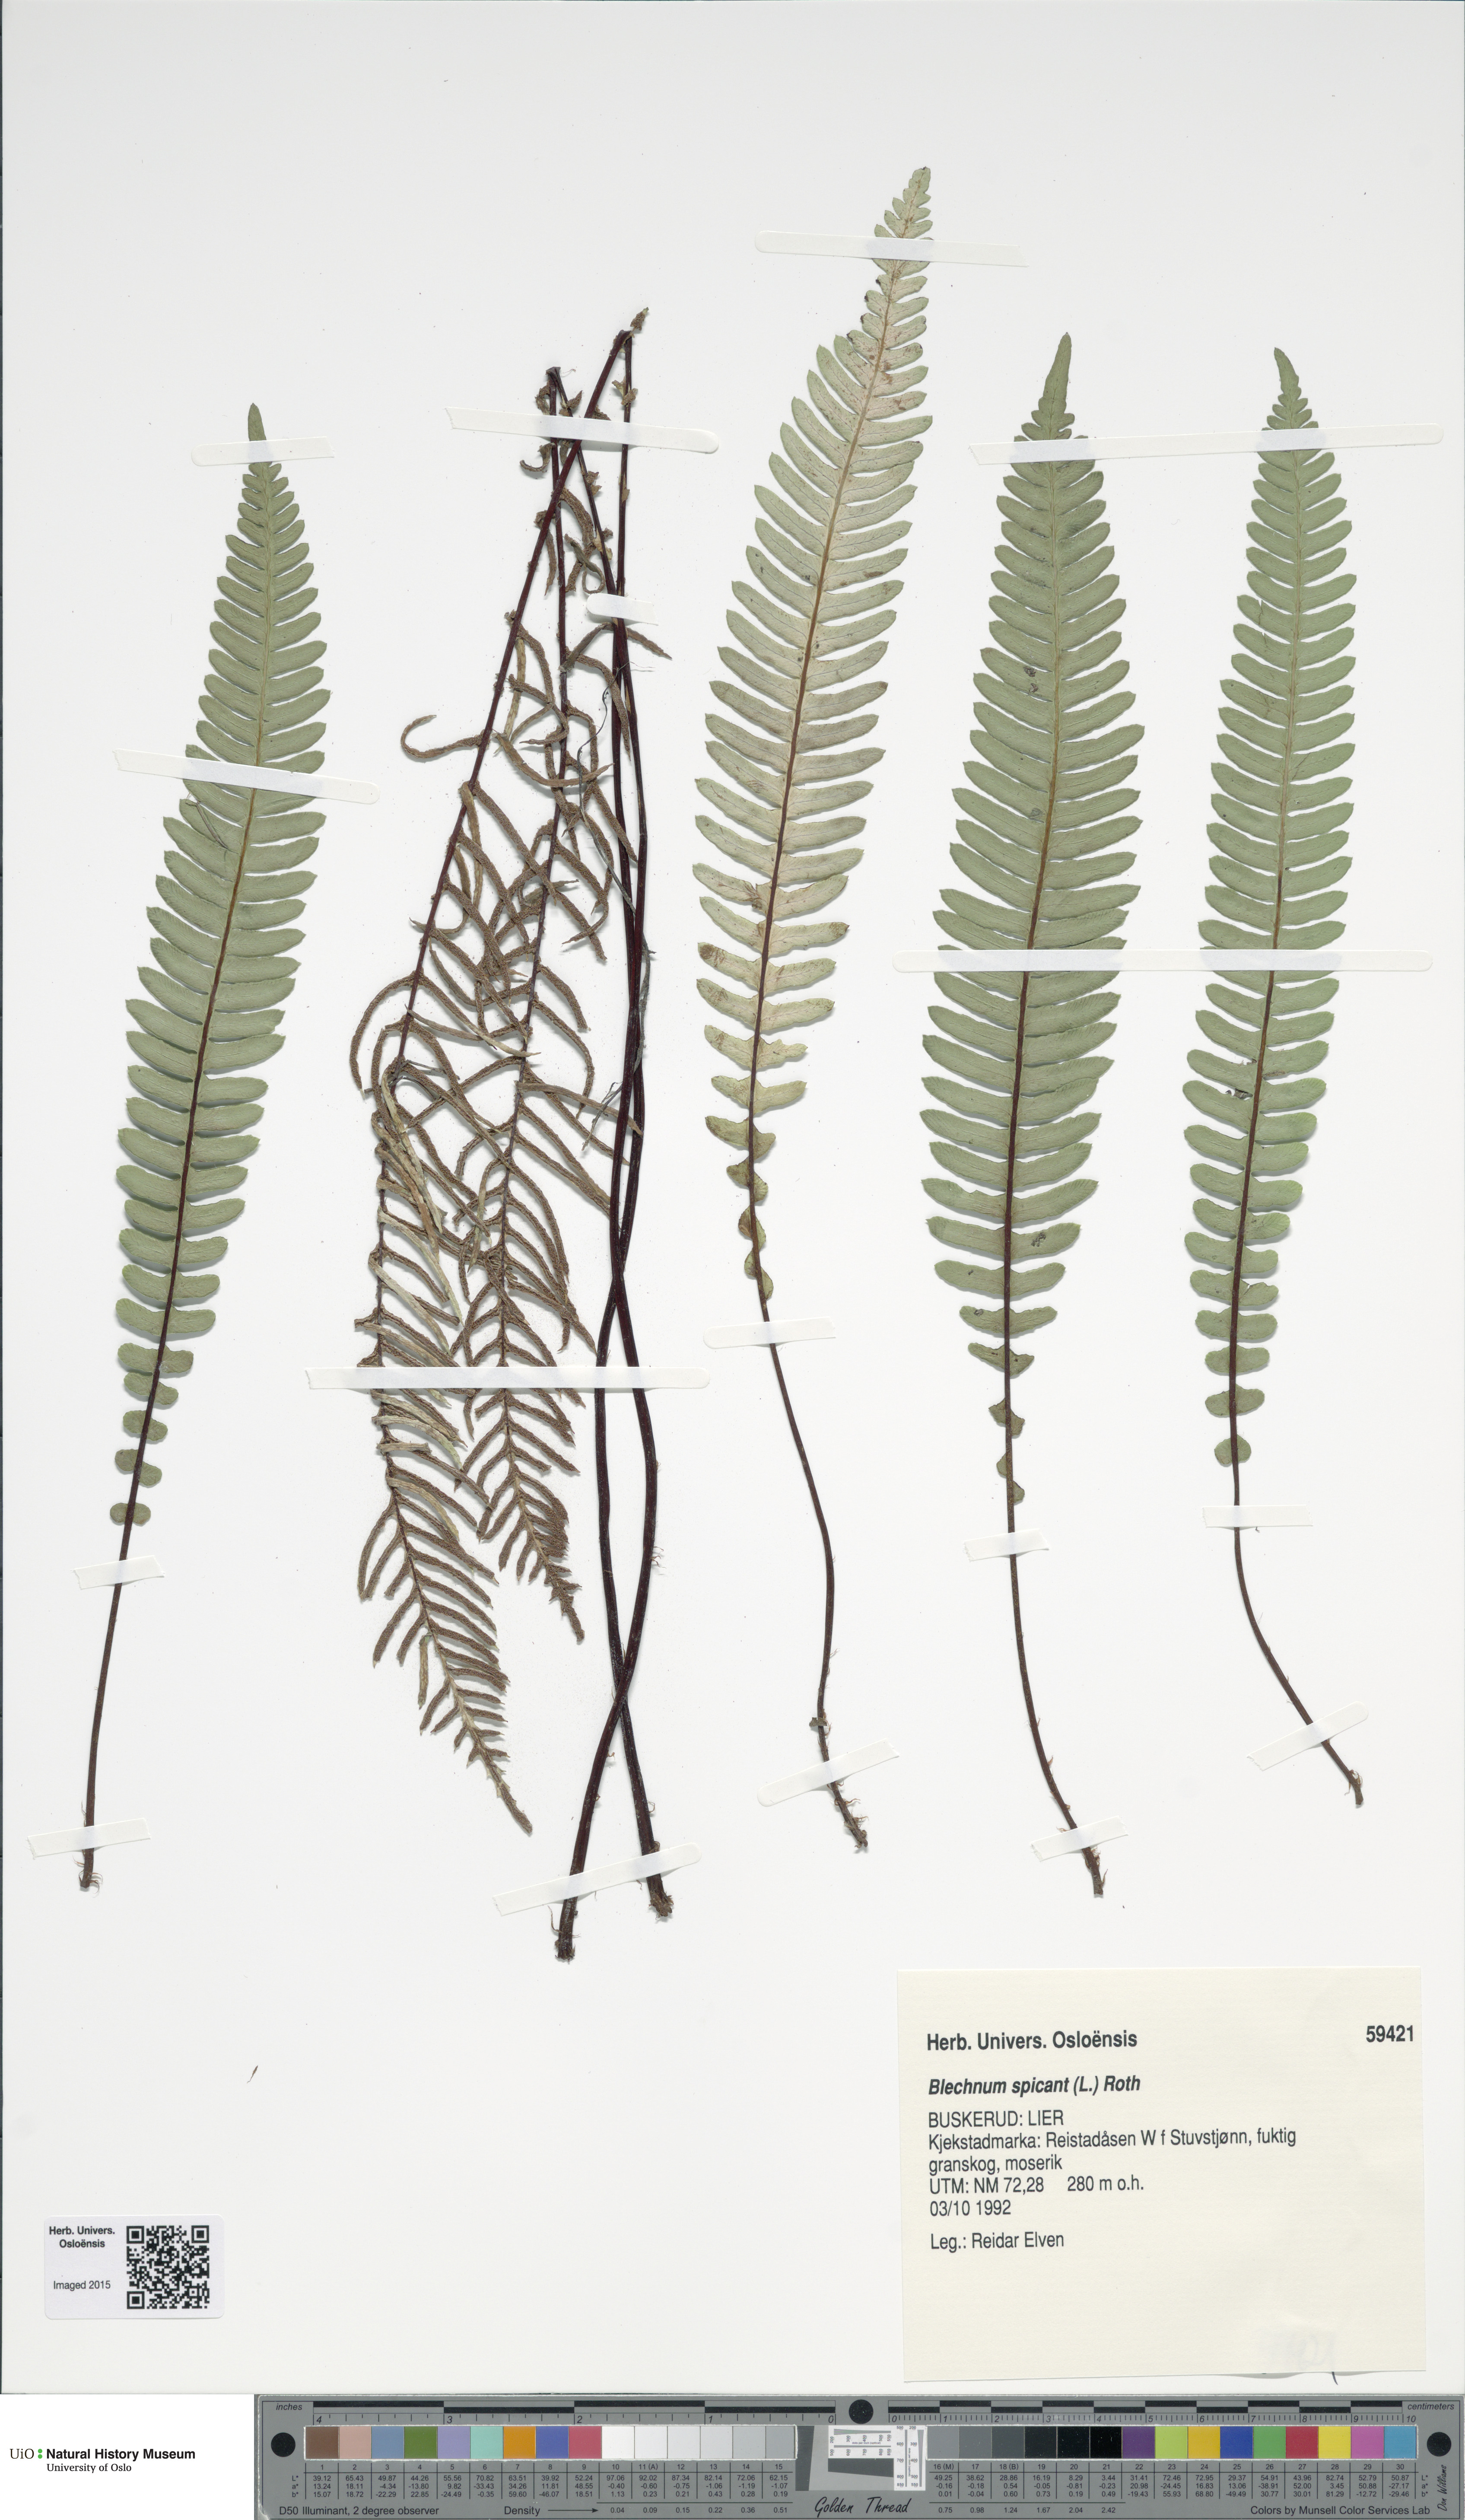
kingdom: Plantae
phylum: Tracheophyta
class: Polypodiopsida
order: Polypodiales
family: Blechnaceae
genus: Struthiopteris
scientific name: Struthiopteris spicant
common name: Deer fern
